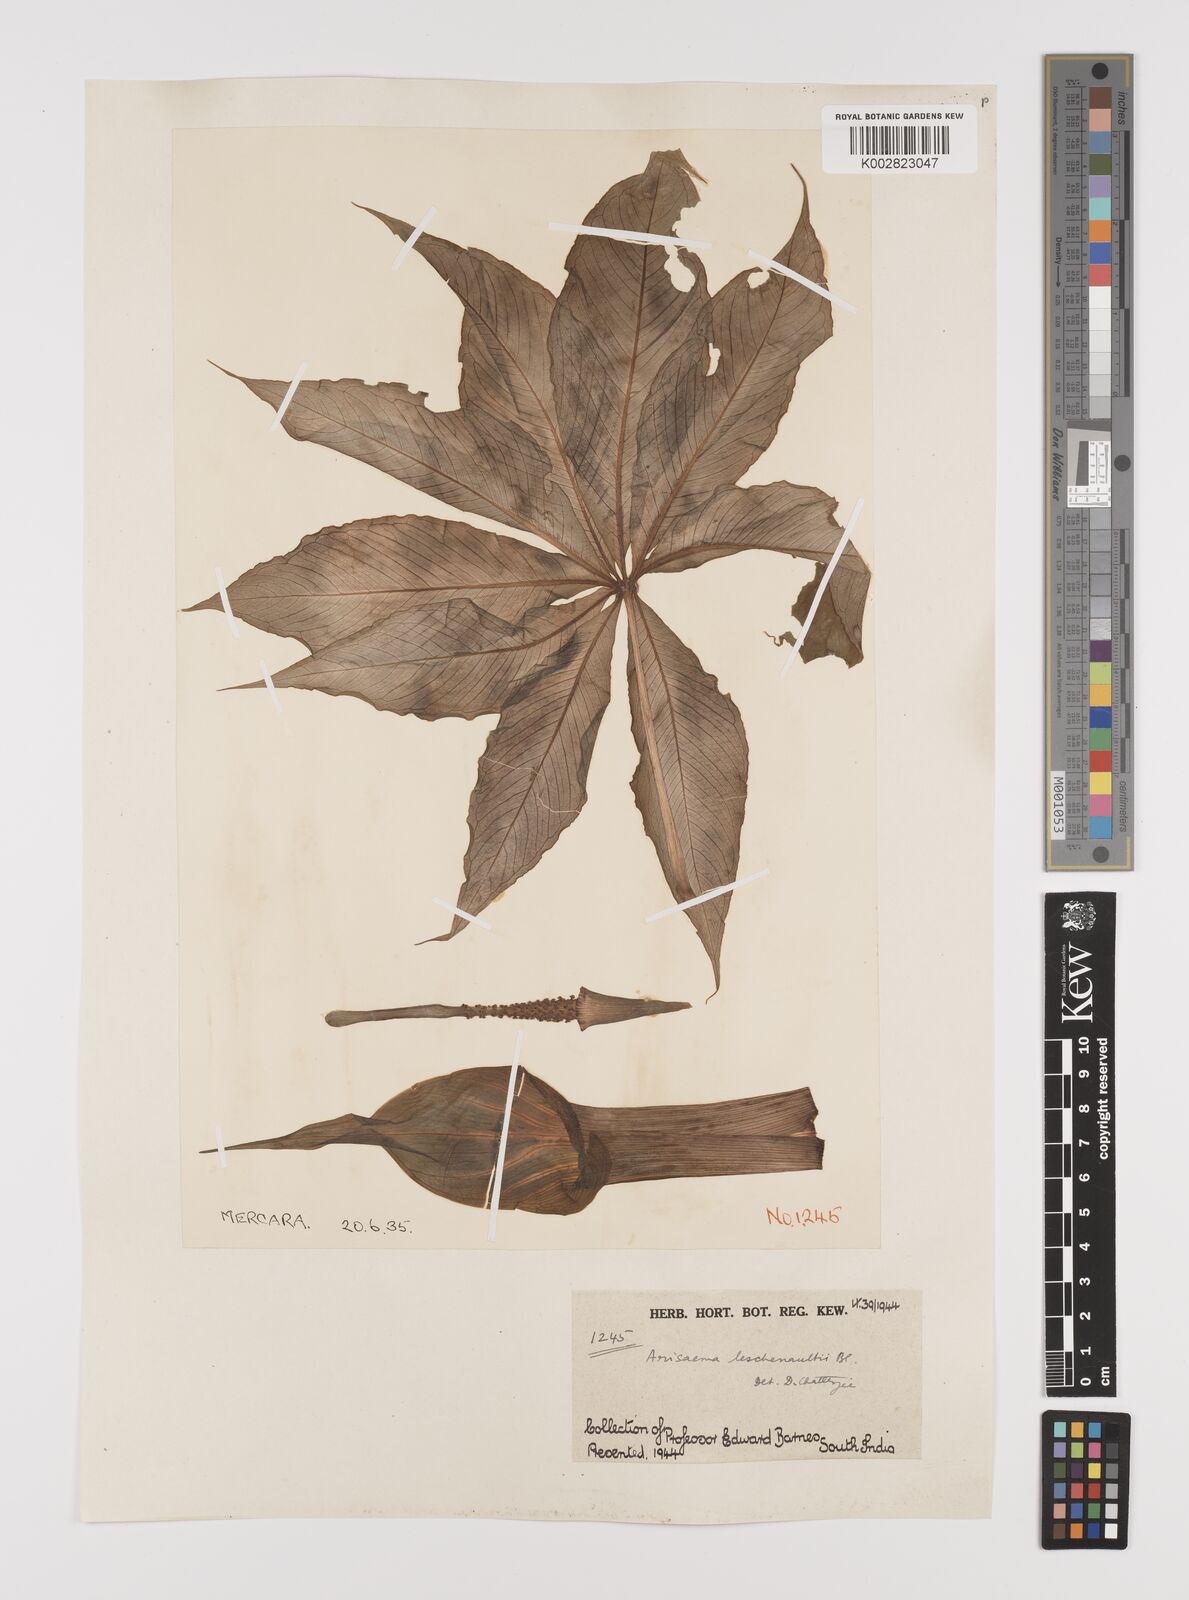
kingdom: Plantae
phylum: Tracheophyta
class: Liliopsida
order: Alismatales
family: Araceae
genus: Arisaema
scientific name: Arisaema leschenaultii
